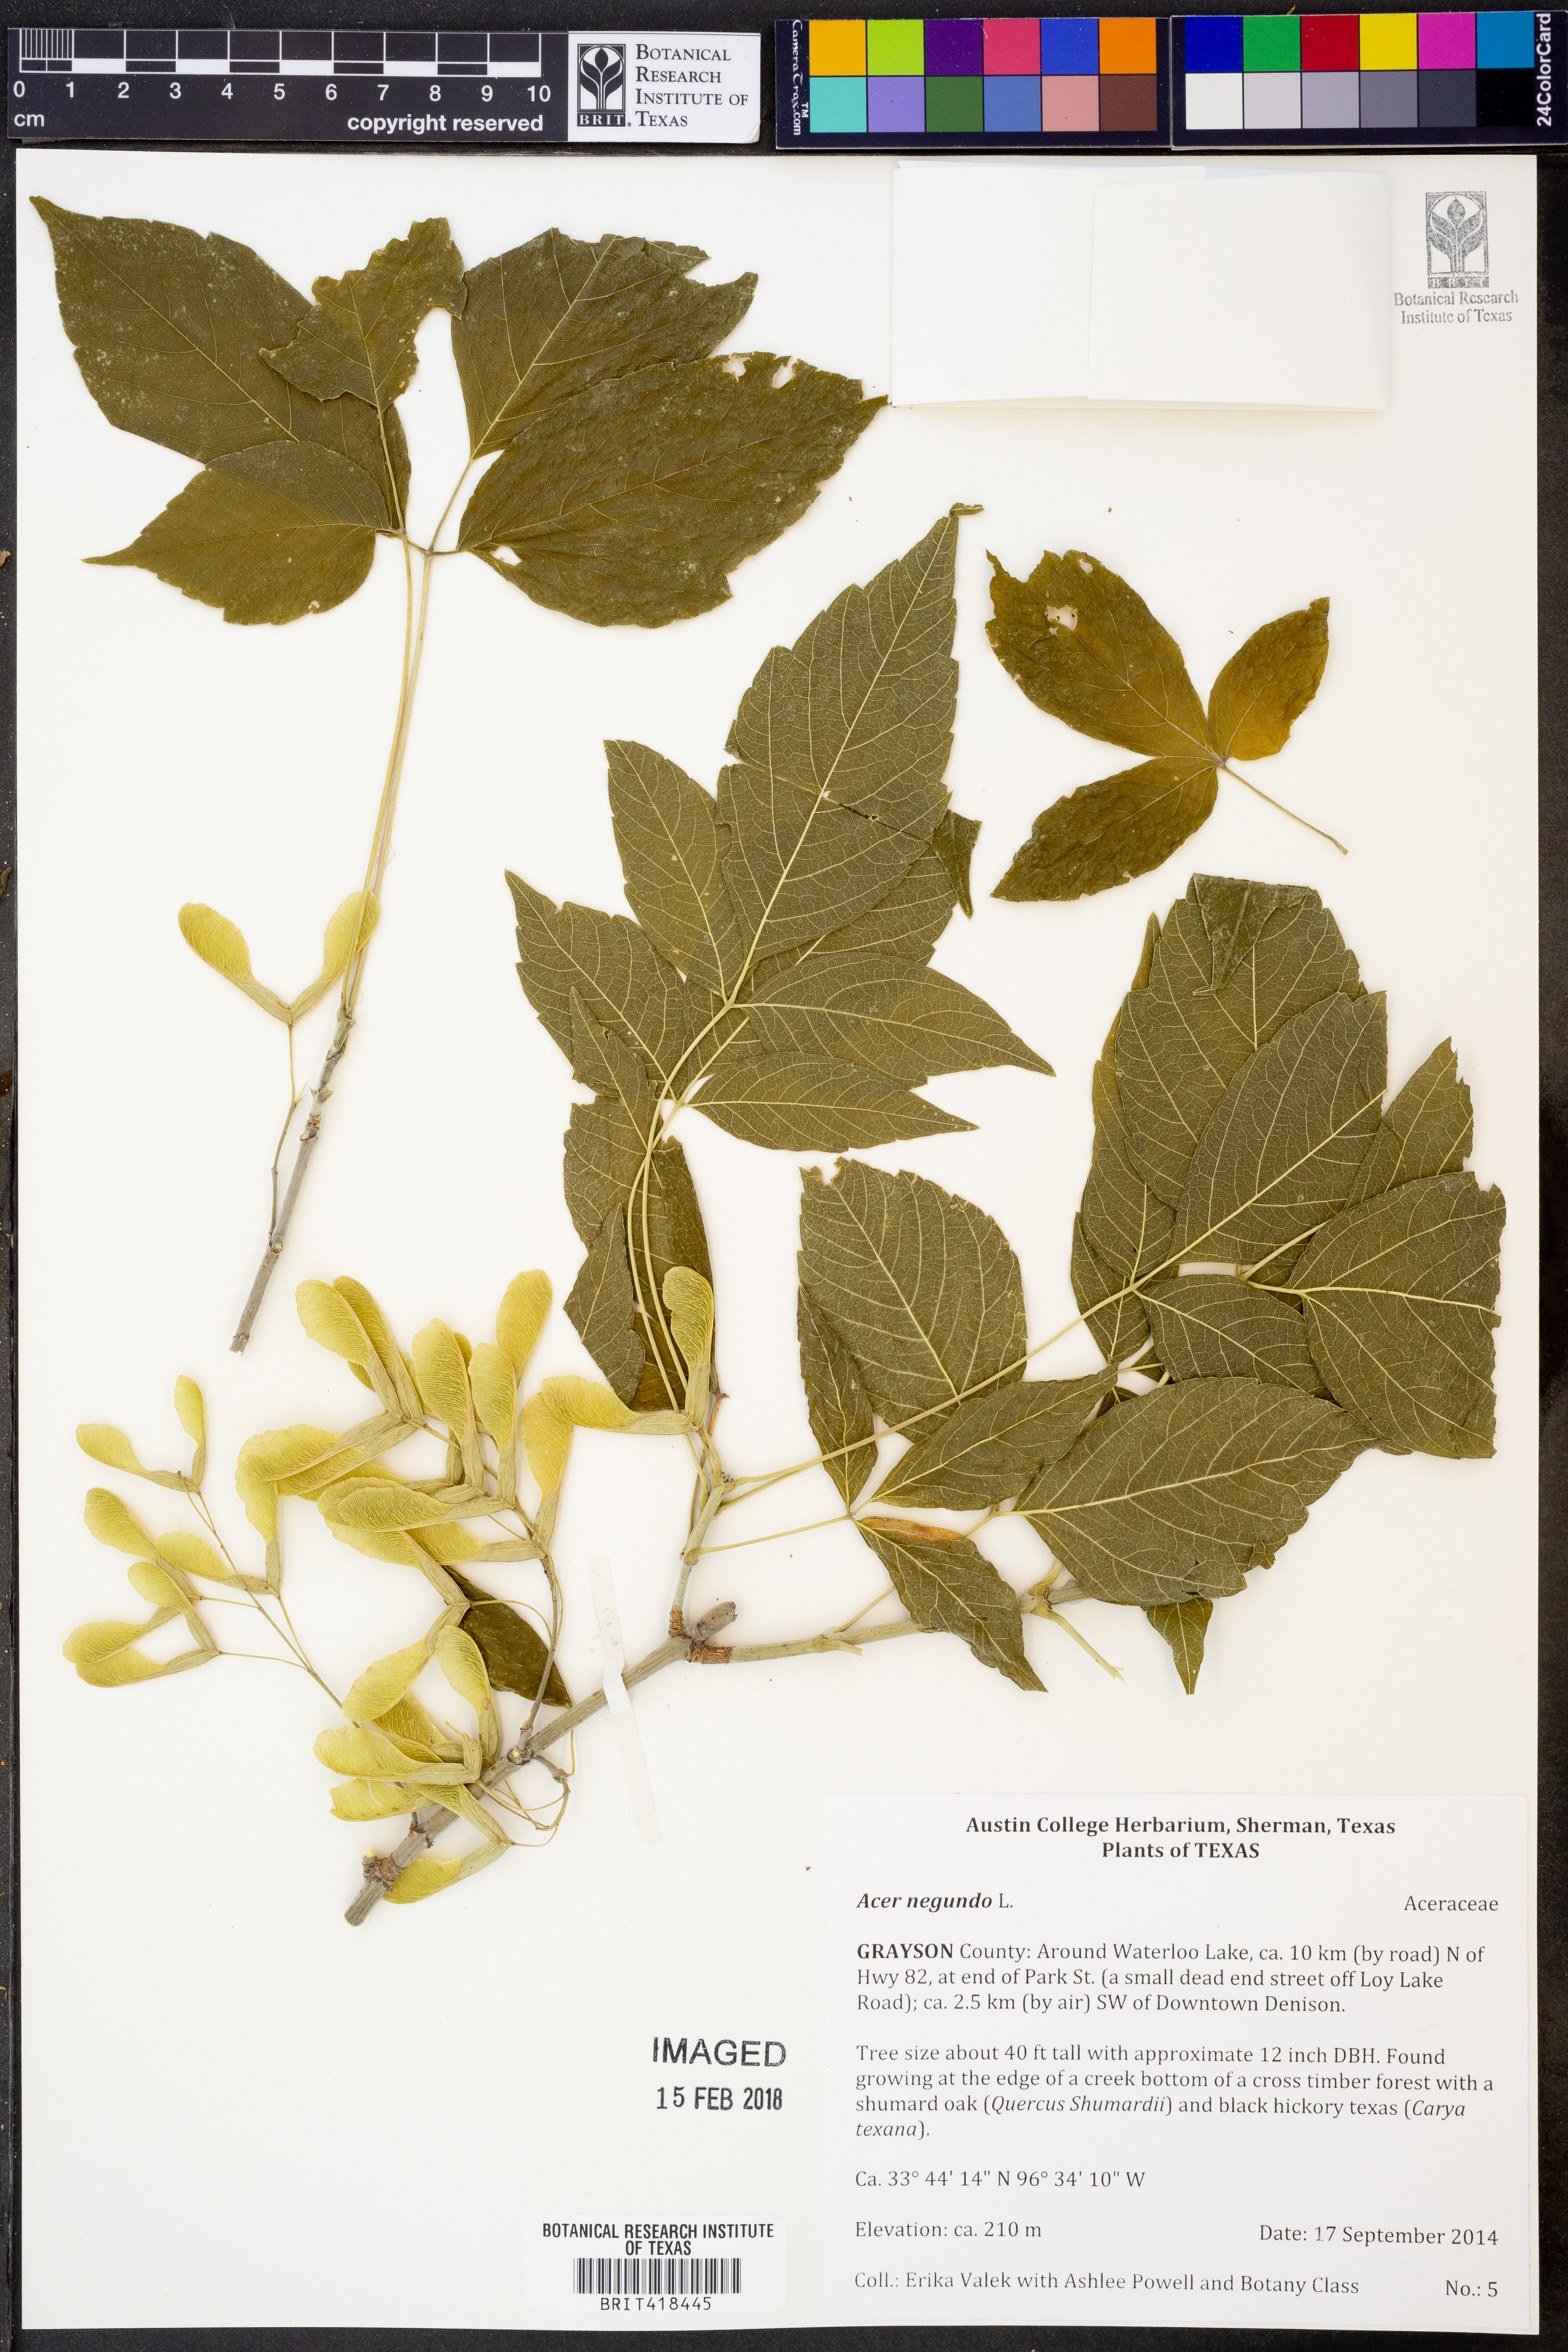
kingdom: Plantae
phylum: Tracheophyta
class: Magnoliopsida
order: Sapindales
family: Sapindaceae
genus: Acer
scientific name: Acer negundo
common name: Ashleaf maple
